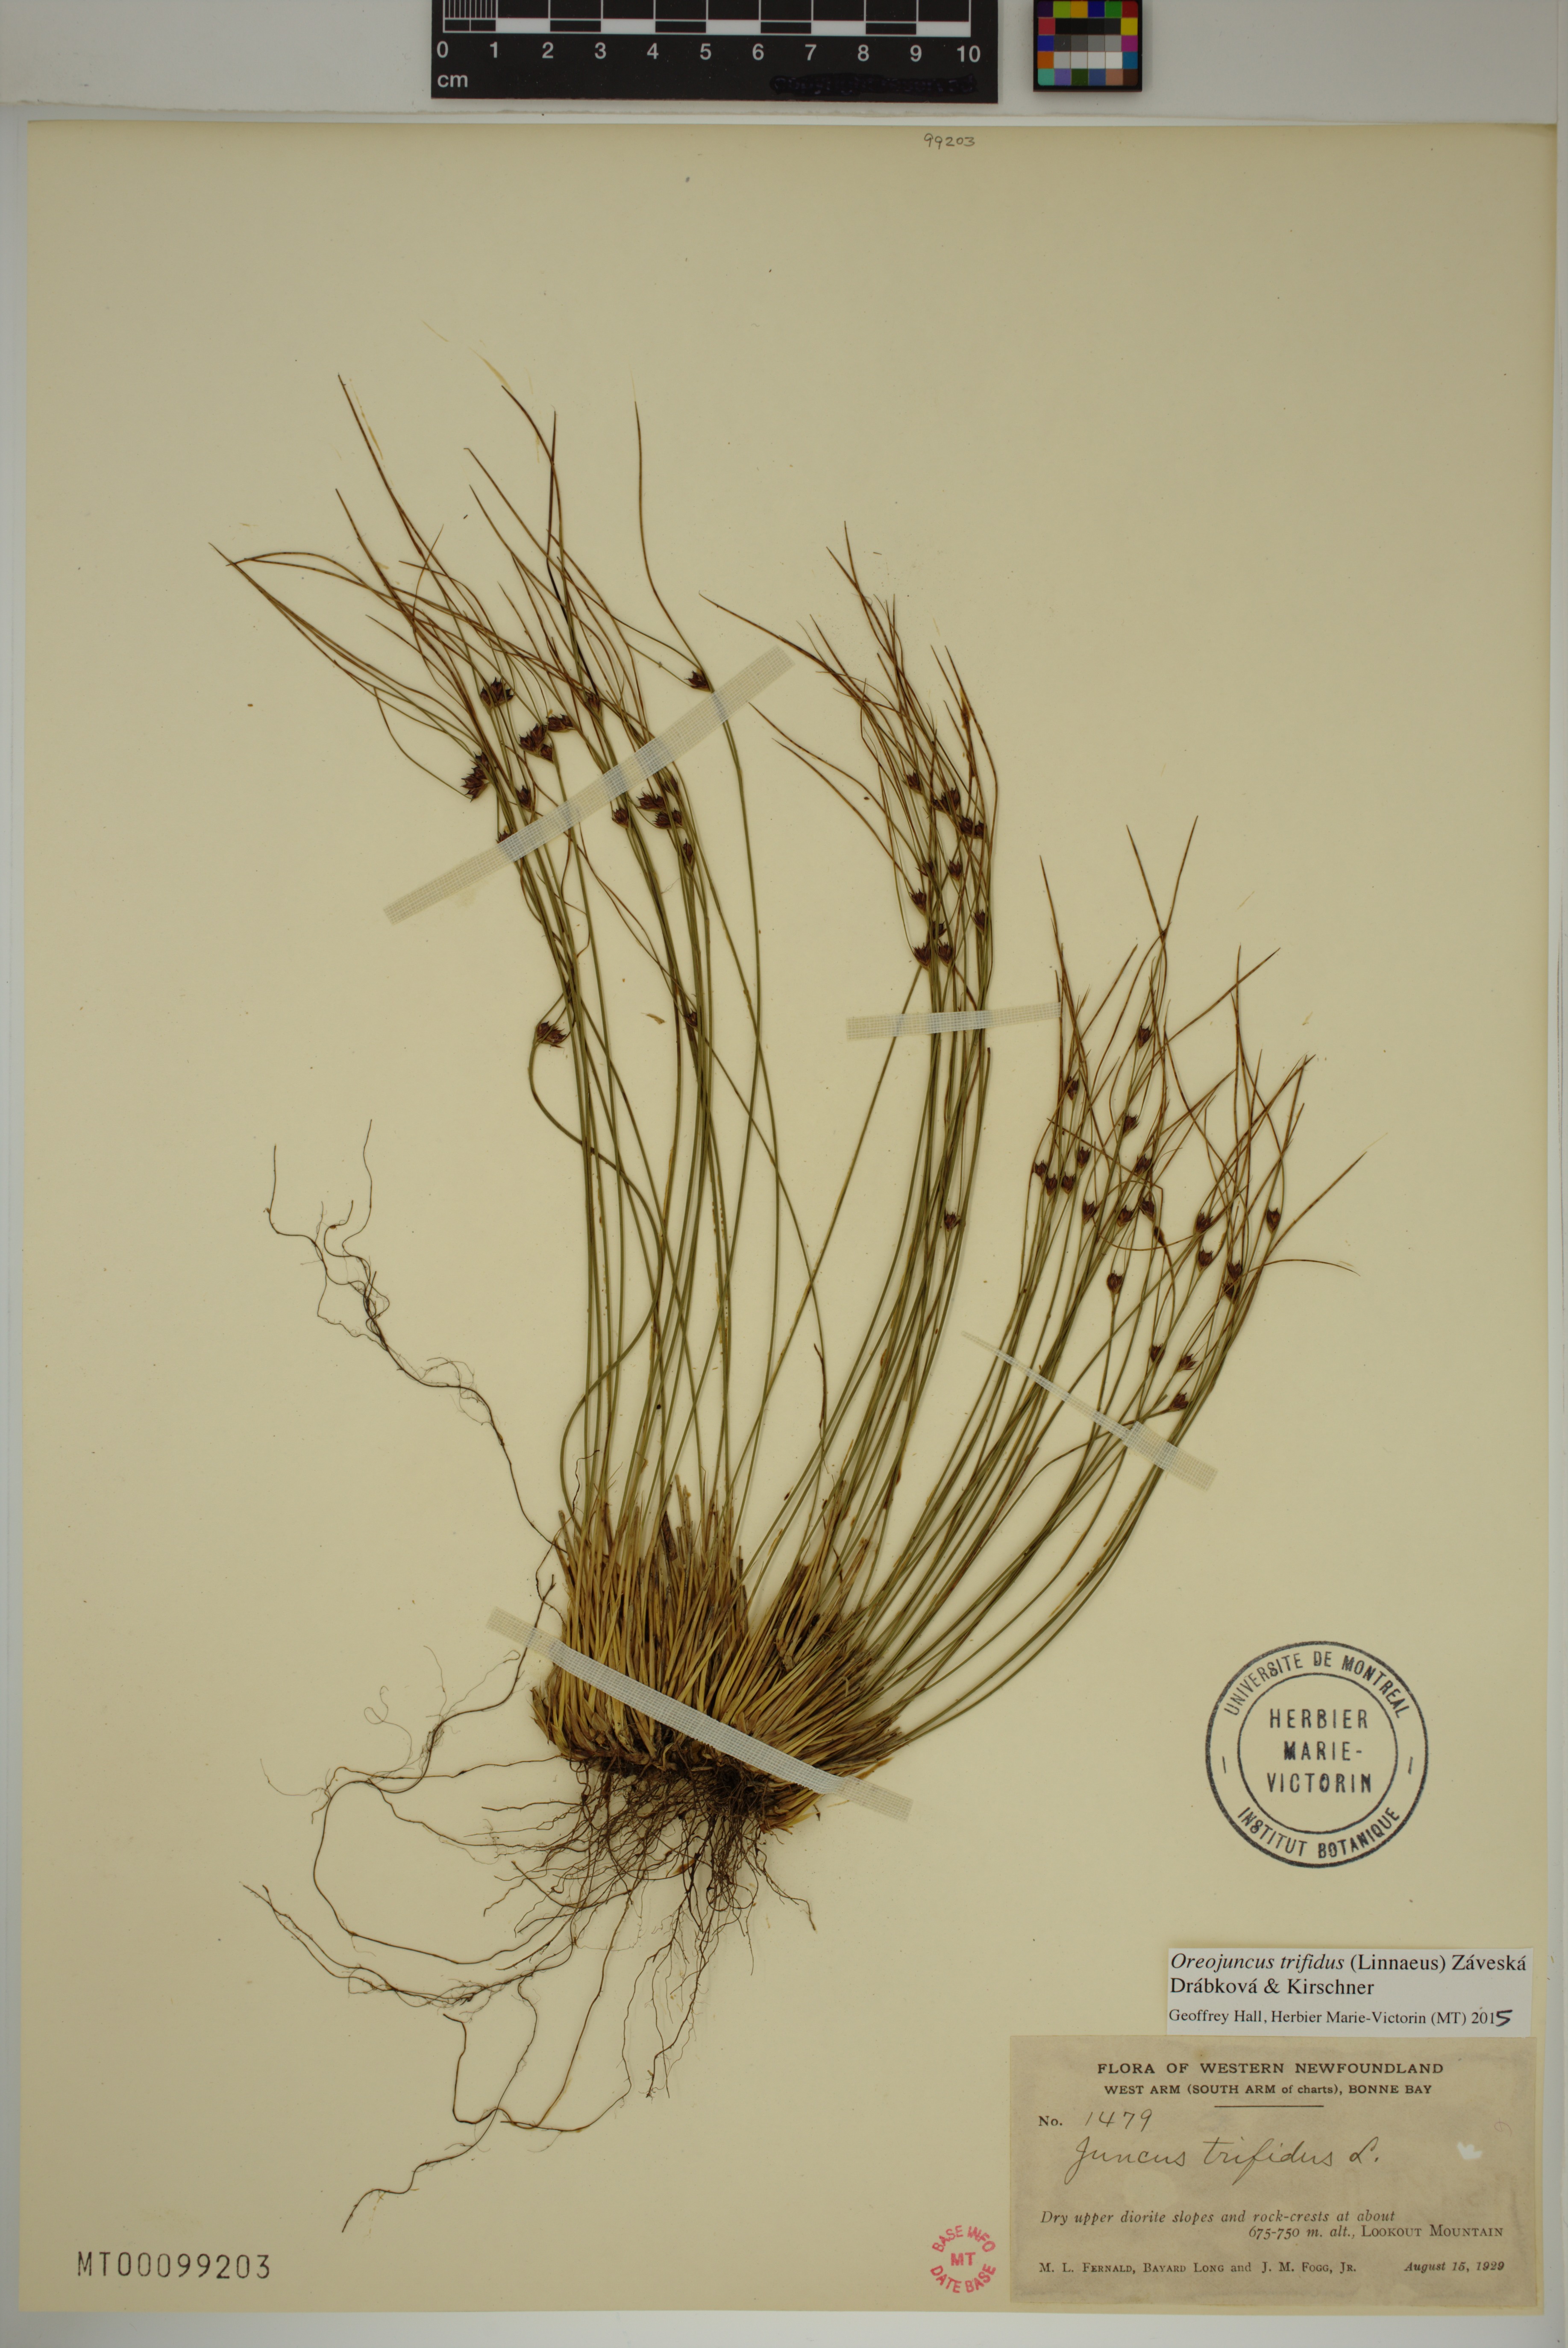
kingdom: Plantae
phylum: Tracheophyta
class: Liliopsida
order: Poales
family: Juncaceae
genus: Oreojuncus
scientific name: Oreojuncus trifidus
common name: Highland rush
